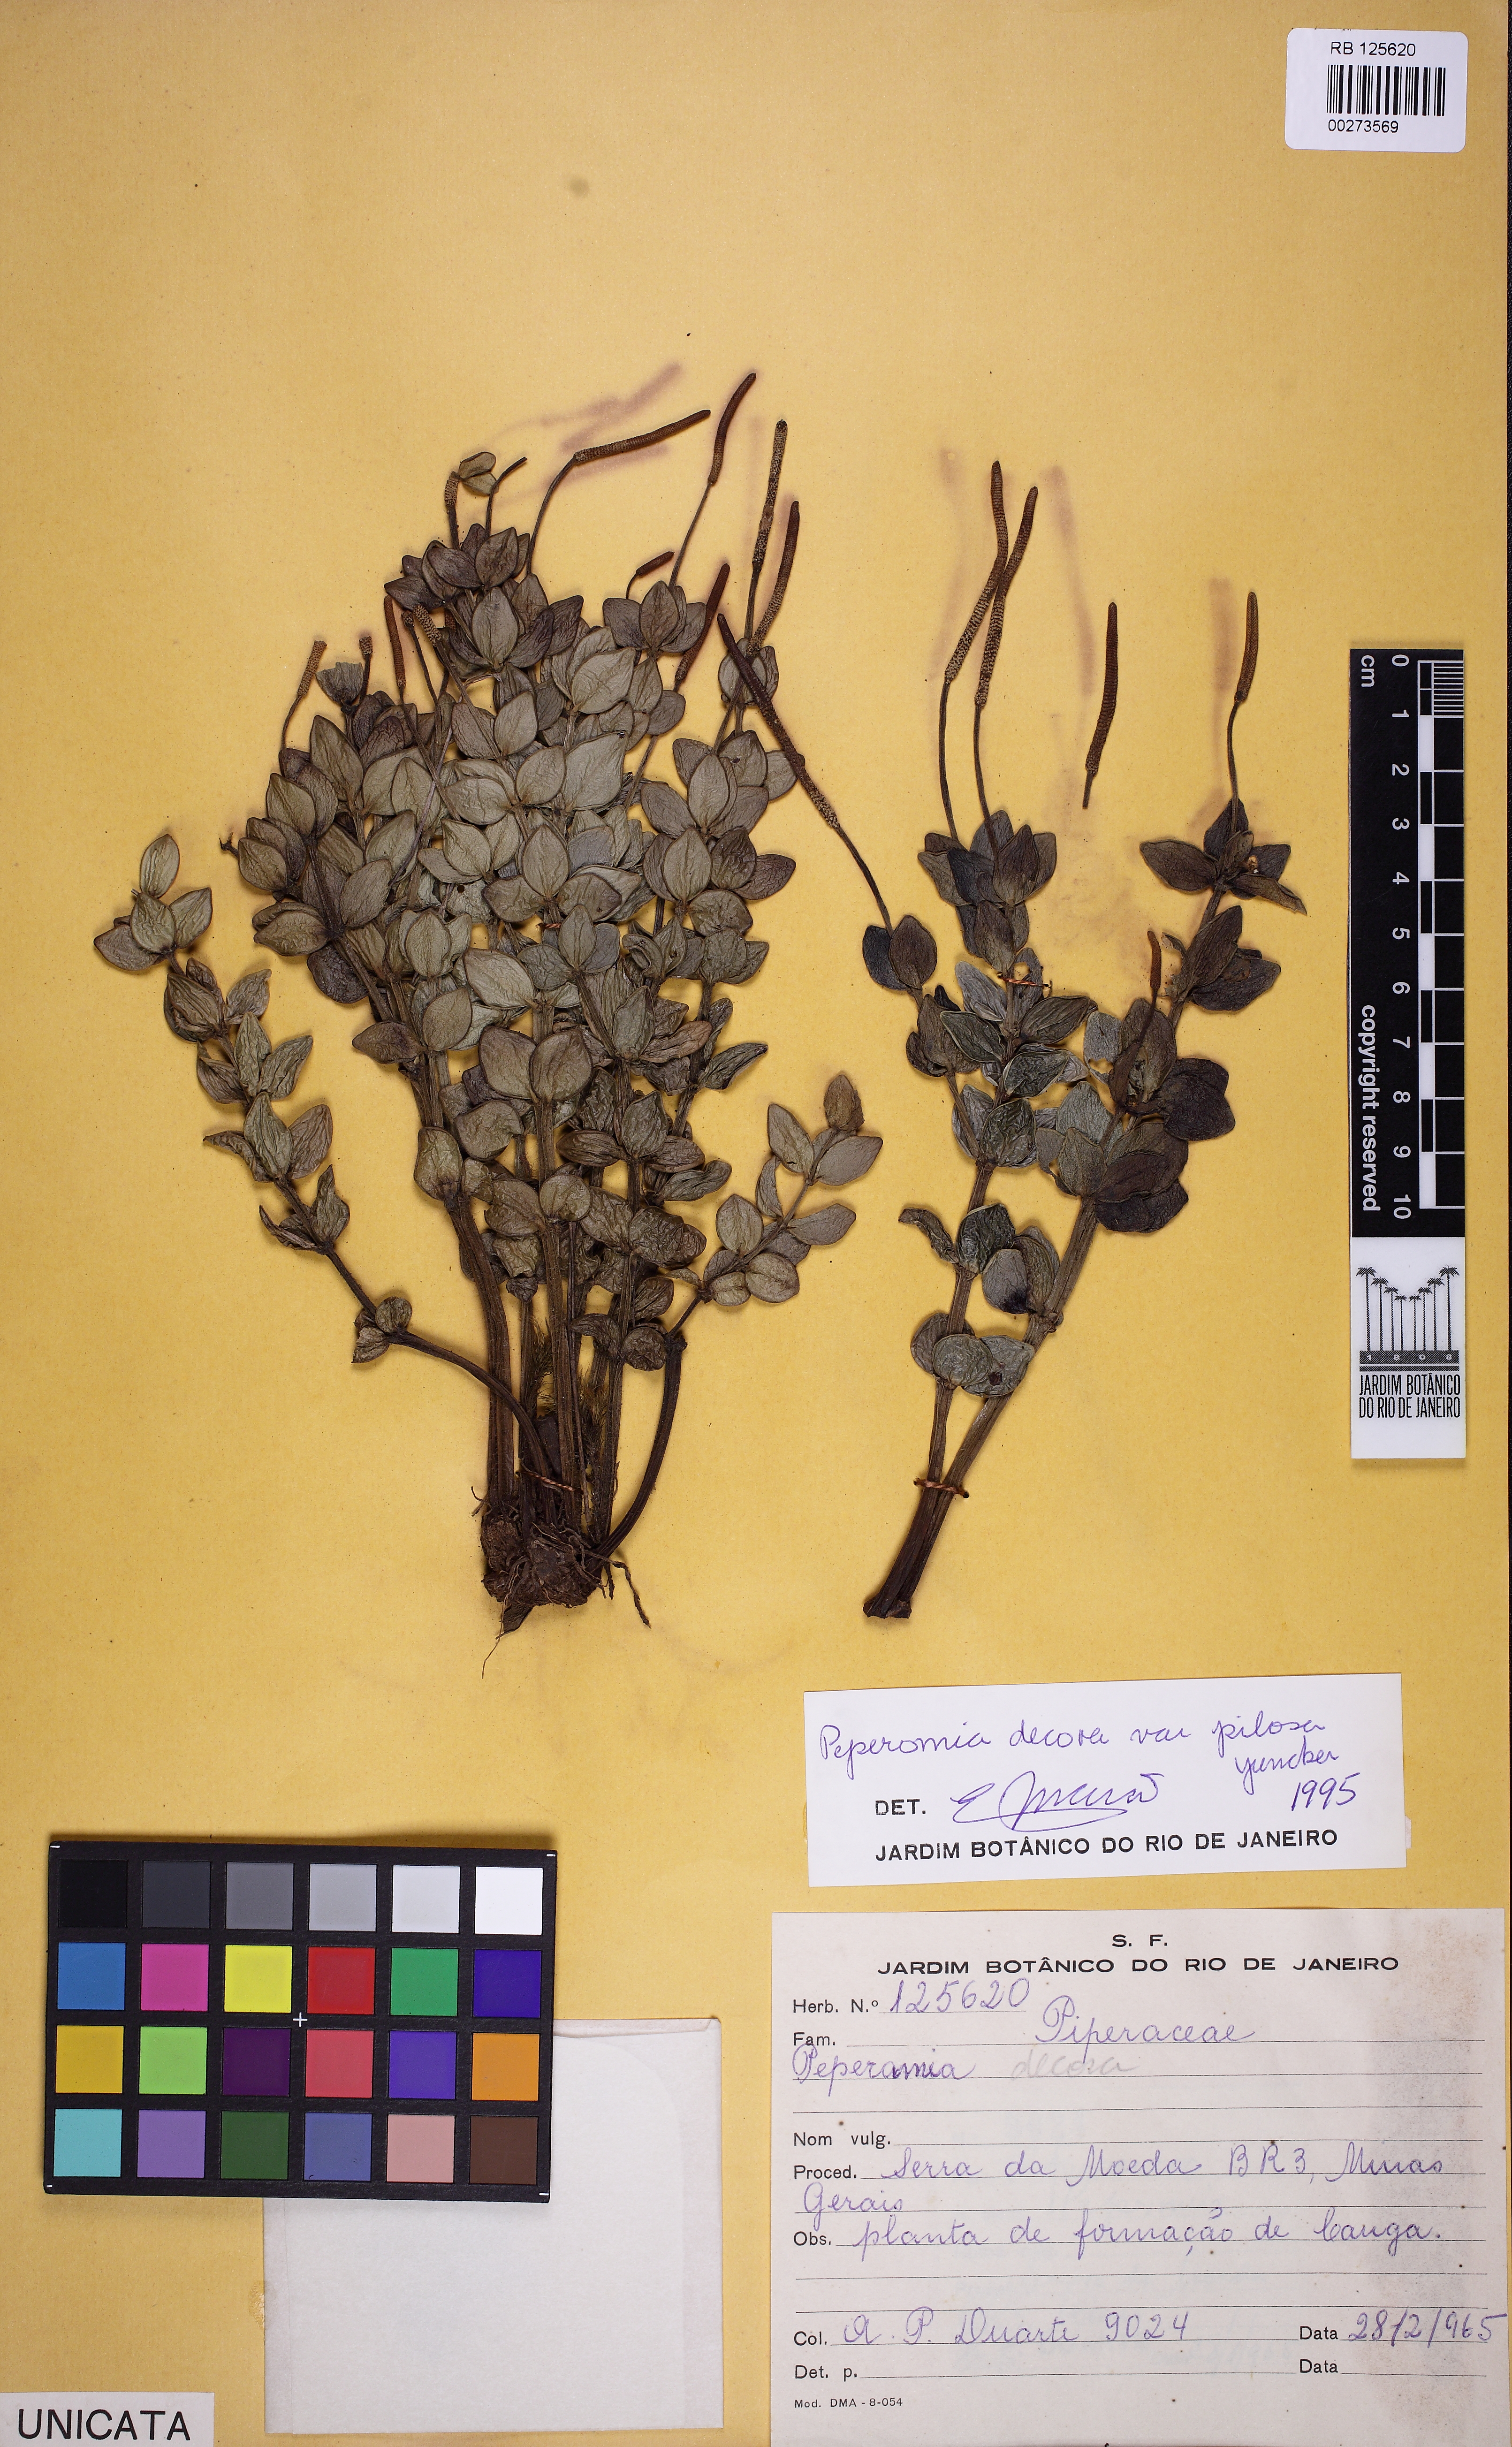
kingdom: Plantae
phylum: Tracheophyta
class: Magnoliopsida
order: Piperales
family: Piperaceae
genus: Peperomia
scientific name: Peperomia decora
